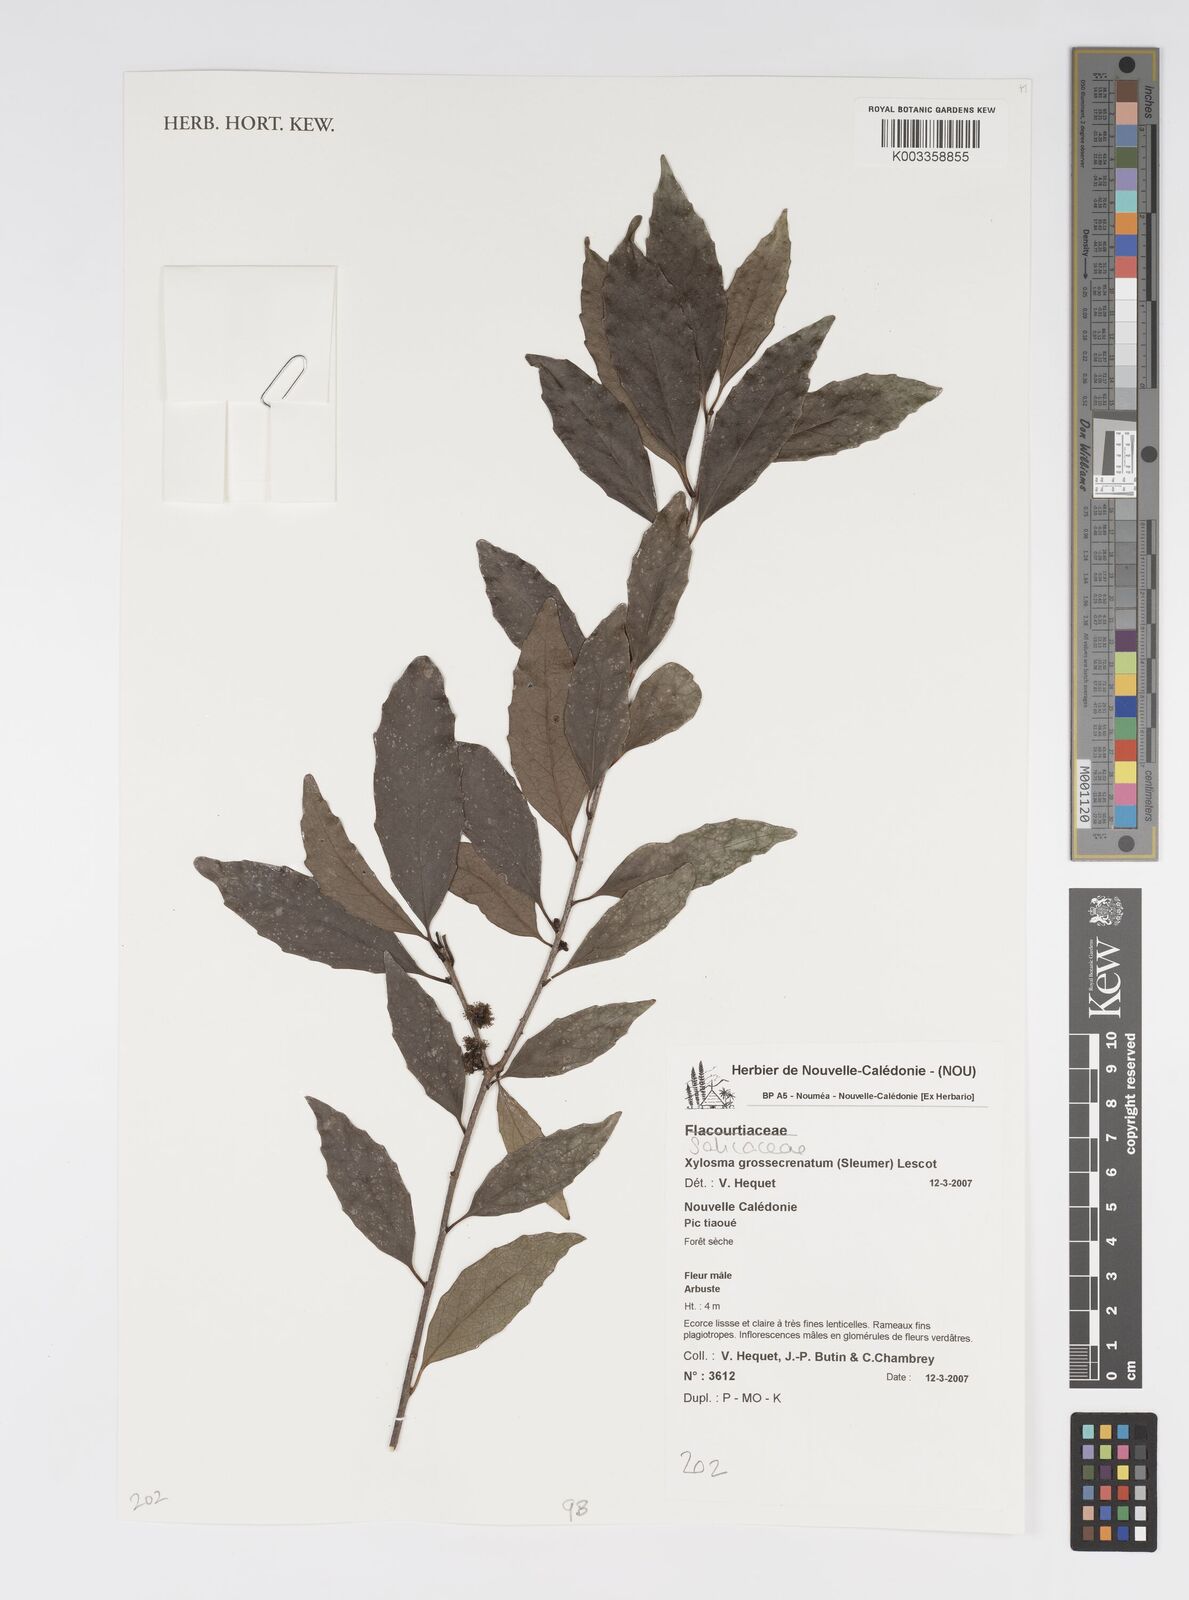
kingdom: Plantae
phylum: Tracheophyta
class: Magnoliopsida
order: Malpighiales
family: Salicaceae
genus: Xylosma
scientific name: Xylosma grossecrenata
